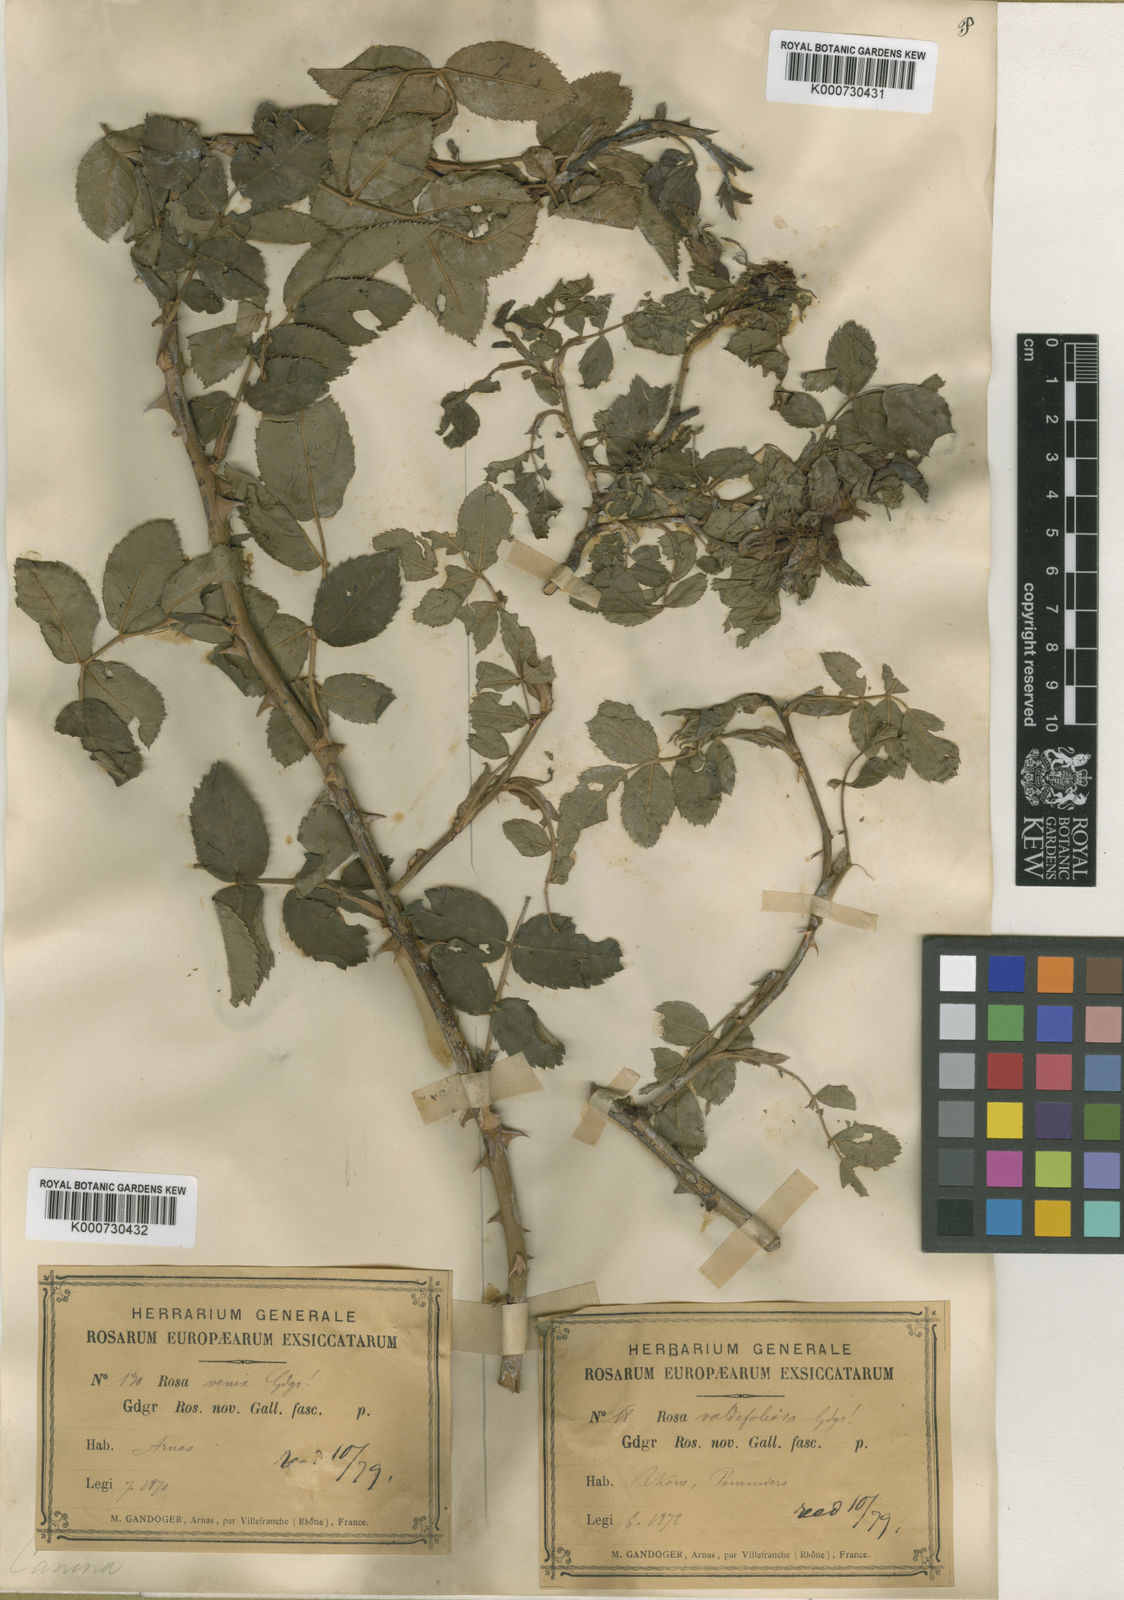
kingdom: Plantae
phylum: Tracheophyta
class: Magnoliopsida
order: Rosales
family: Rosaceae
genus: Rosa
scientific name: Rosa canina
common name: Dog rose
